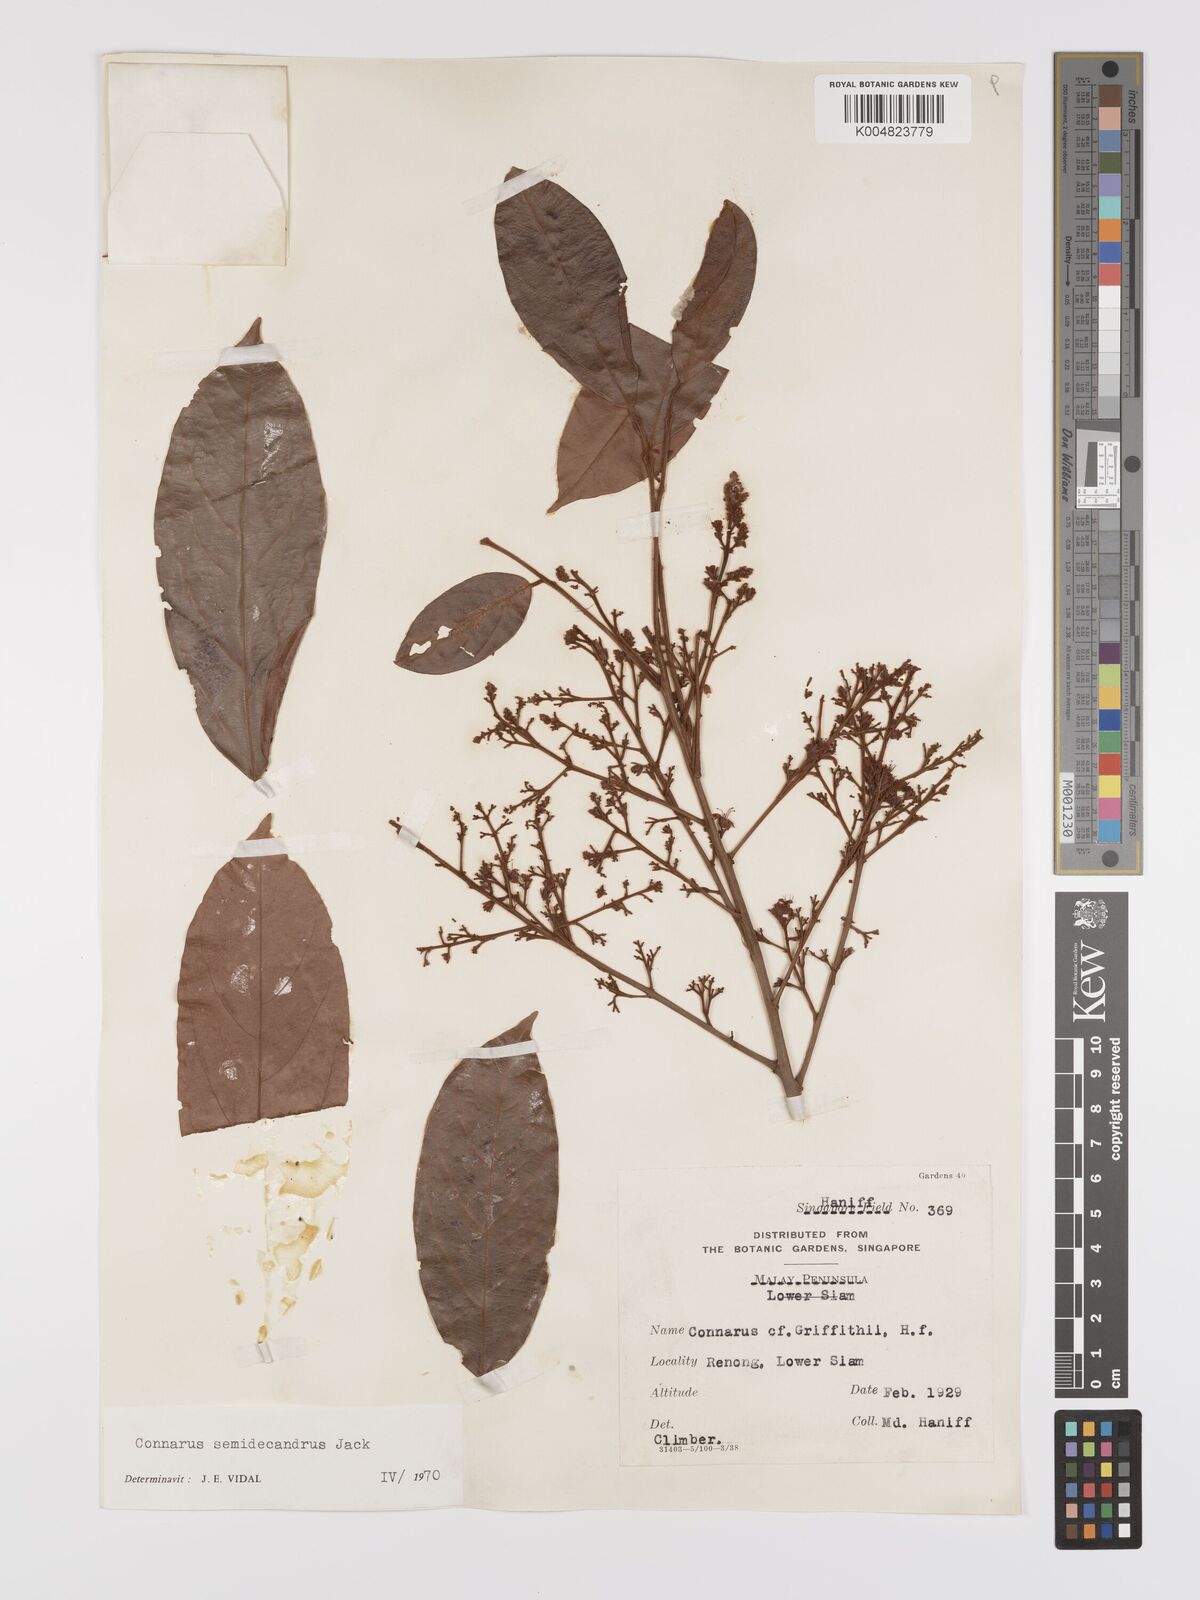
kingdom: Plantae
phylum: Tracheophyta
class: Magnoliopsida
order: Oxalidales
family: Connaraceae
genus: Connarus
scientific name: Connarus semidecandrus
